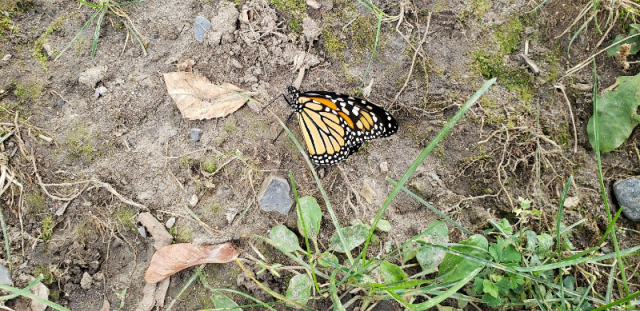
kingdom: Animalia
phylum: Arthropoda
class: Insecta
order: Lepidoptera
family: Nymphalidae
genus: Danaus
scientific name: Danaus plexippus
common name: Monarch
